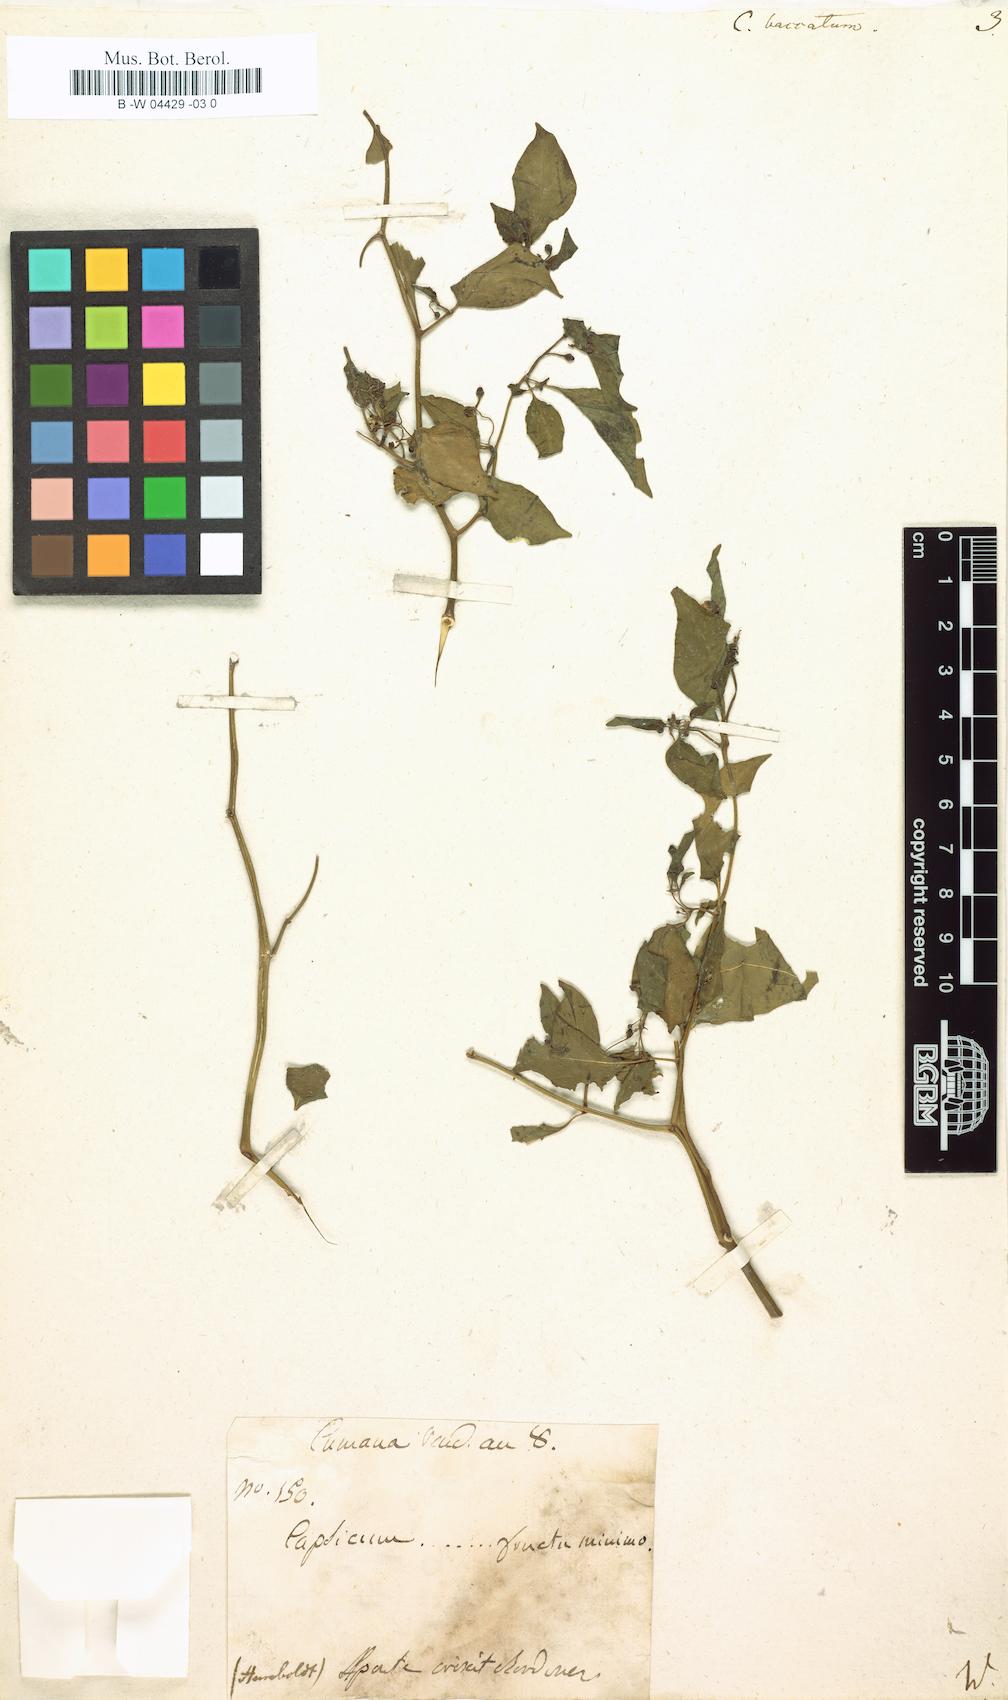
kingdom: Plantae
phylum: Tracheophyta
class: Magnoliopsida
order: Solanales
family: Solanaceae
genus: Capsicum
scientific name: Capsicum baccatum
